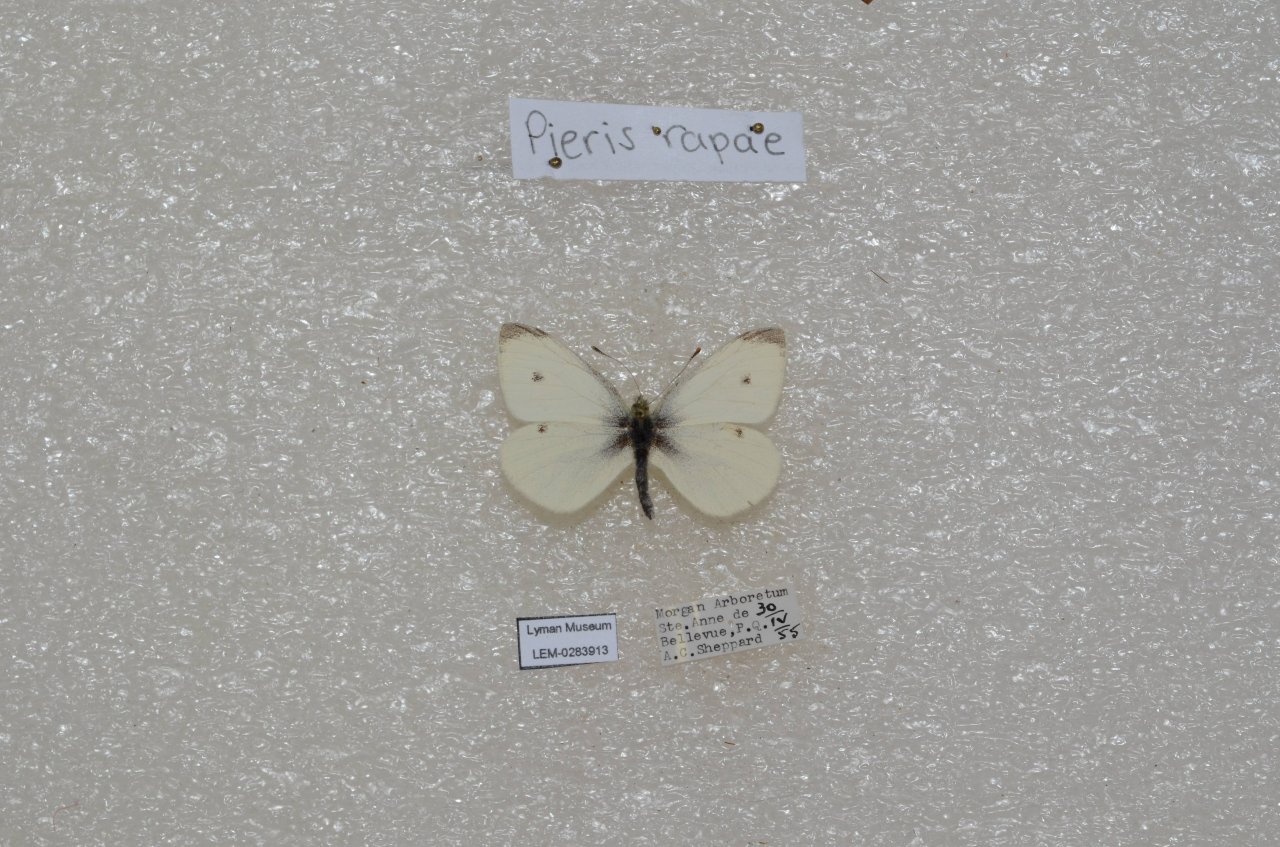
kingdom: Animalia
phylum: Arthropoda
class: Insecta
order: Lepidoptera
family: Pieridae
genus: Pieris
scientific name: Pieris rapae
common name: Cabbage White
